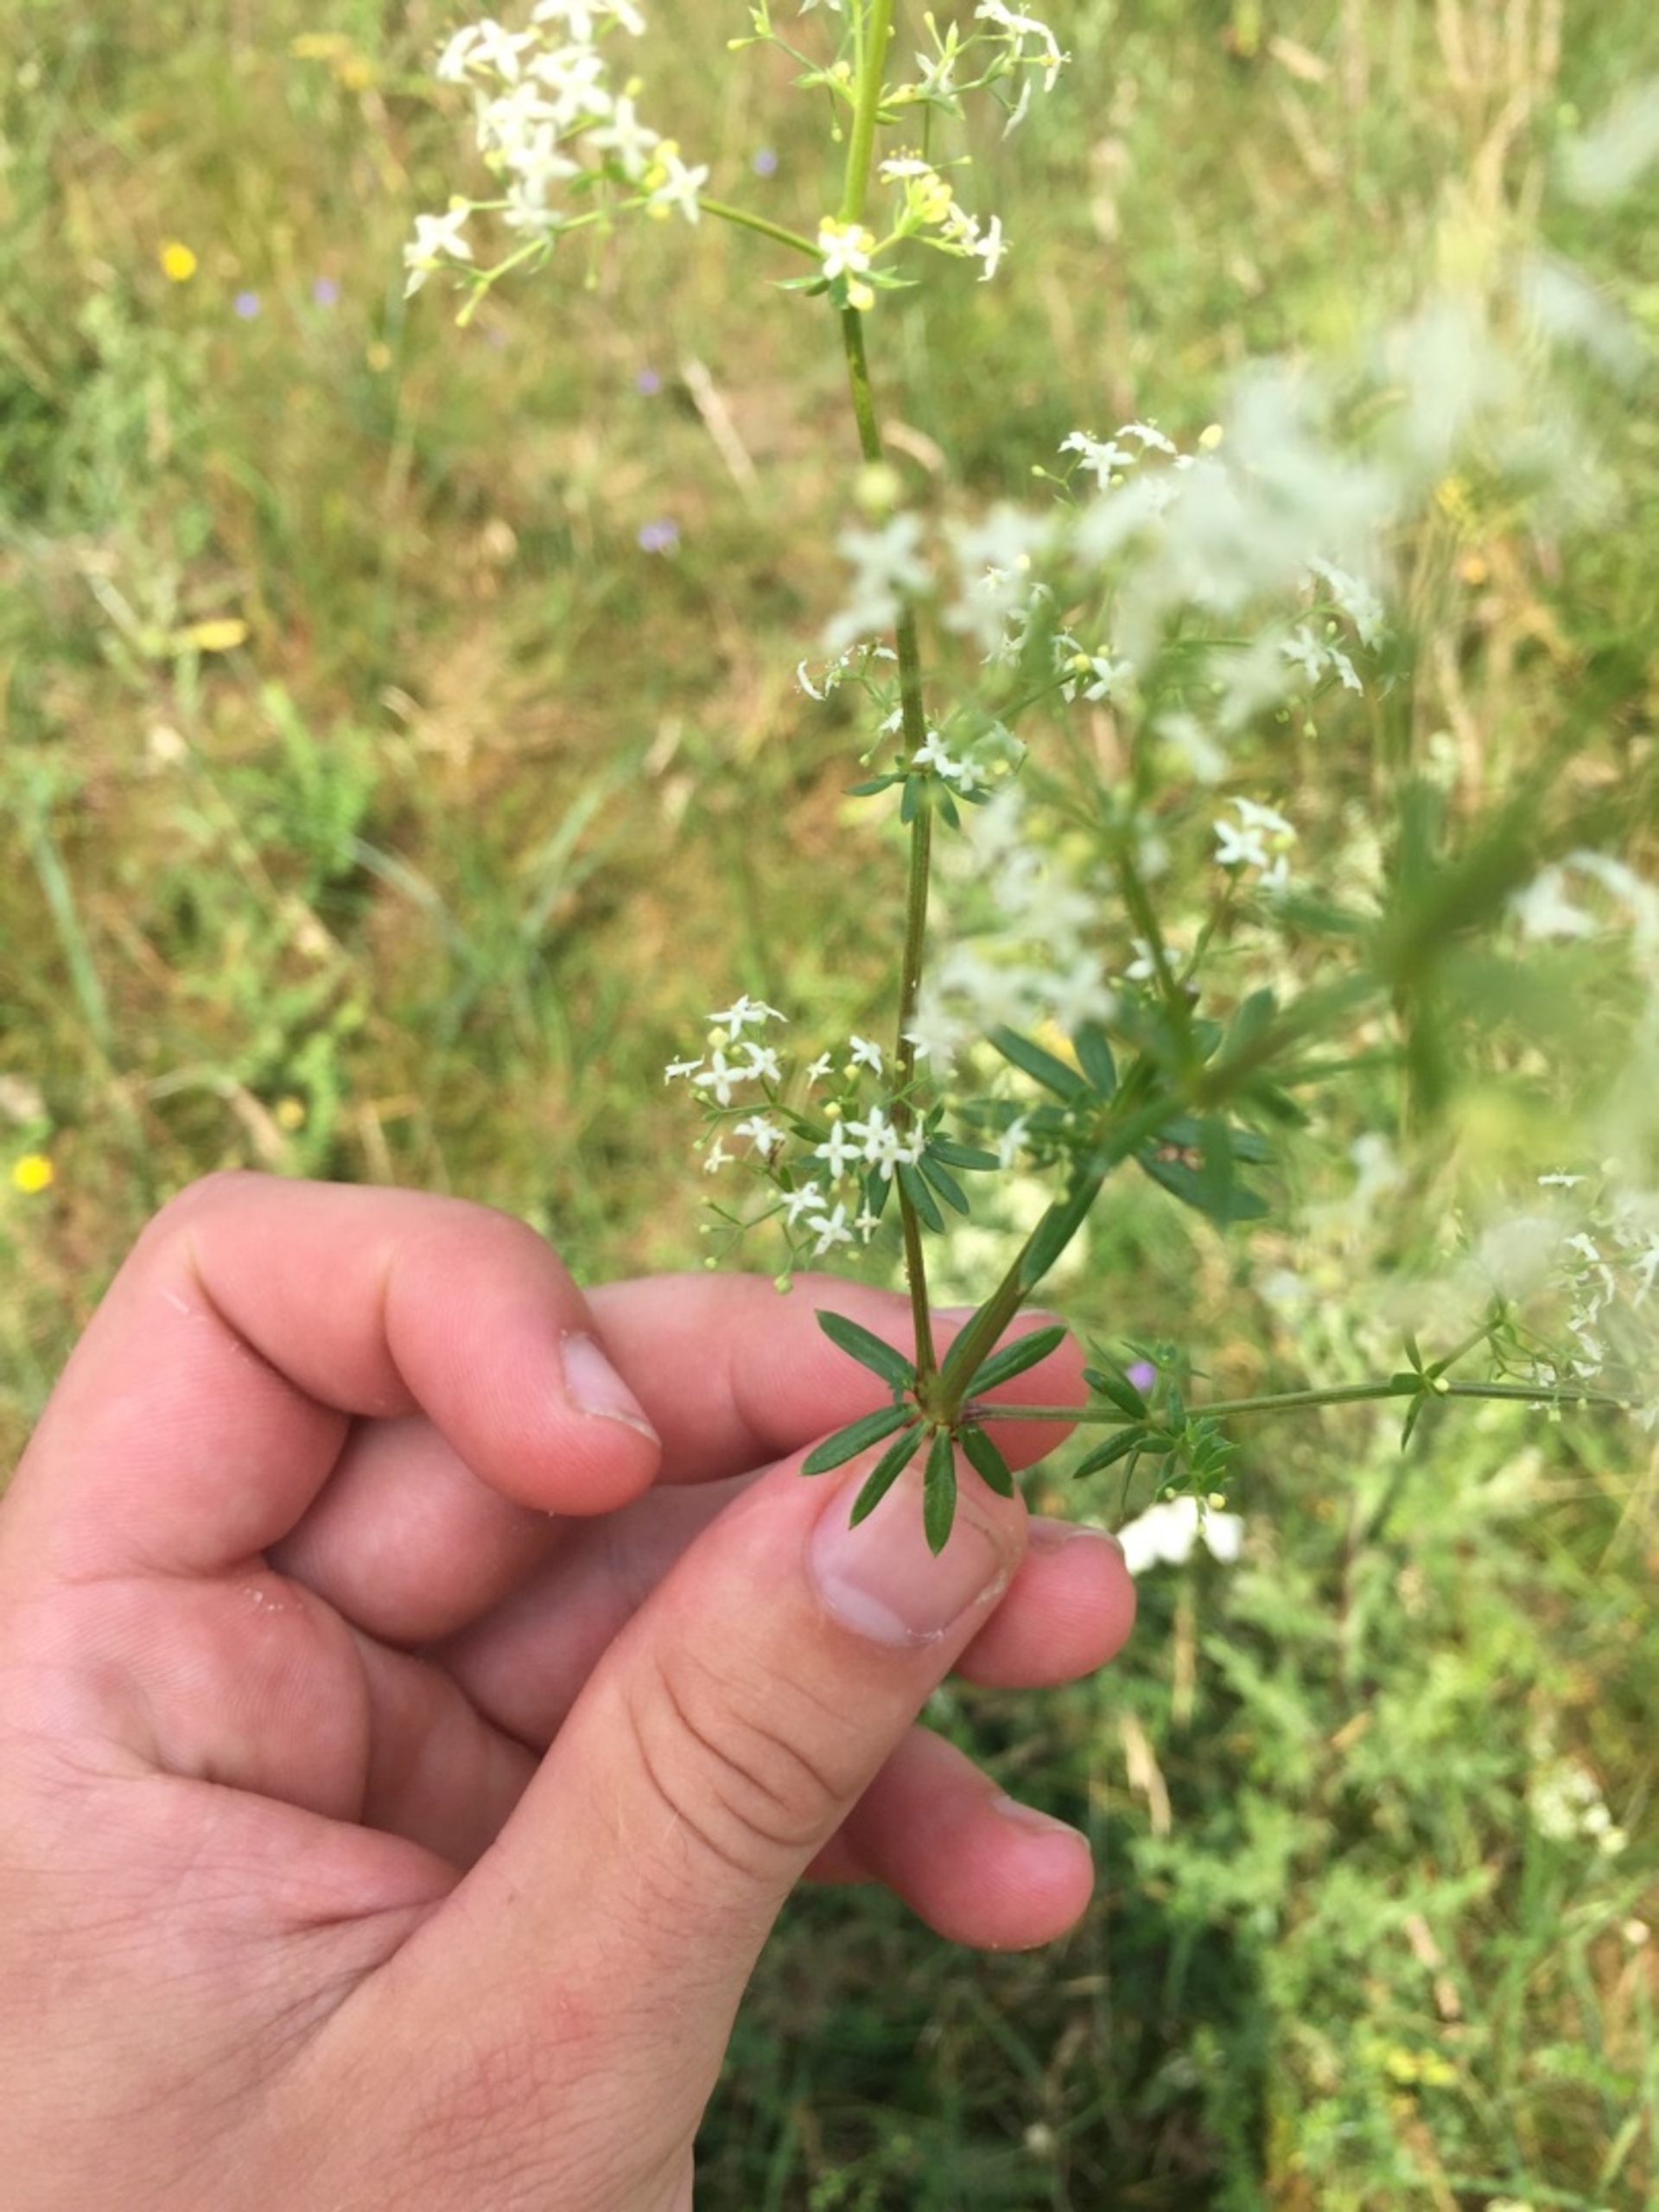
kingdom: Plantae
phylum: Tracheophyta
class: Magnoliopsida
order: Gentianales
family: Rubiaceae
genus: Galium
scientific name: Galium mollugo
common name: Hvid snerre
